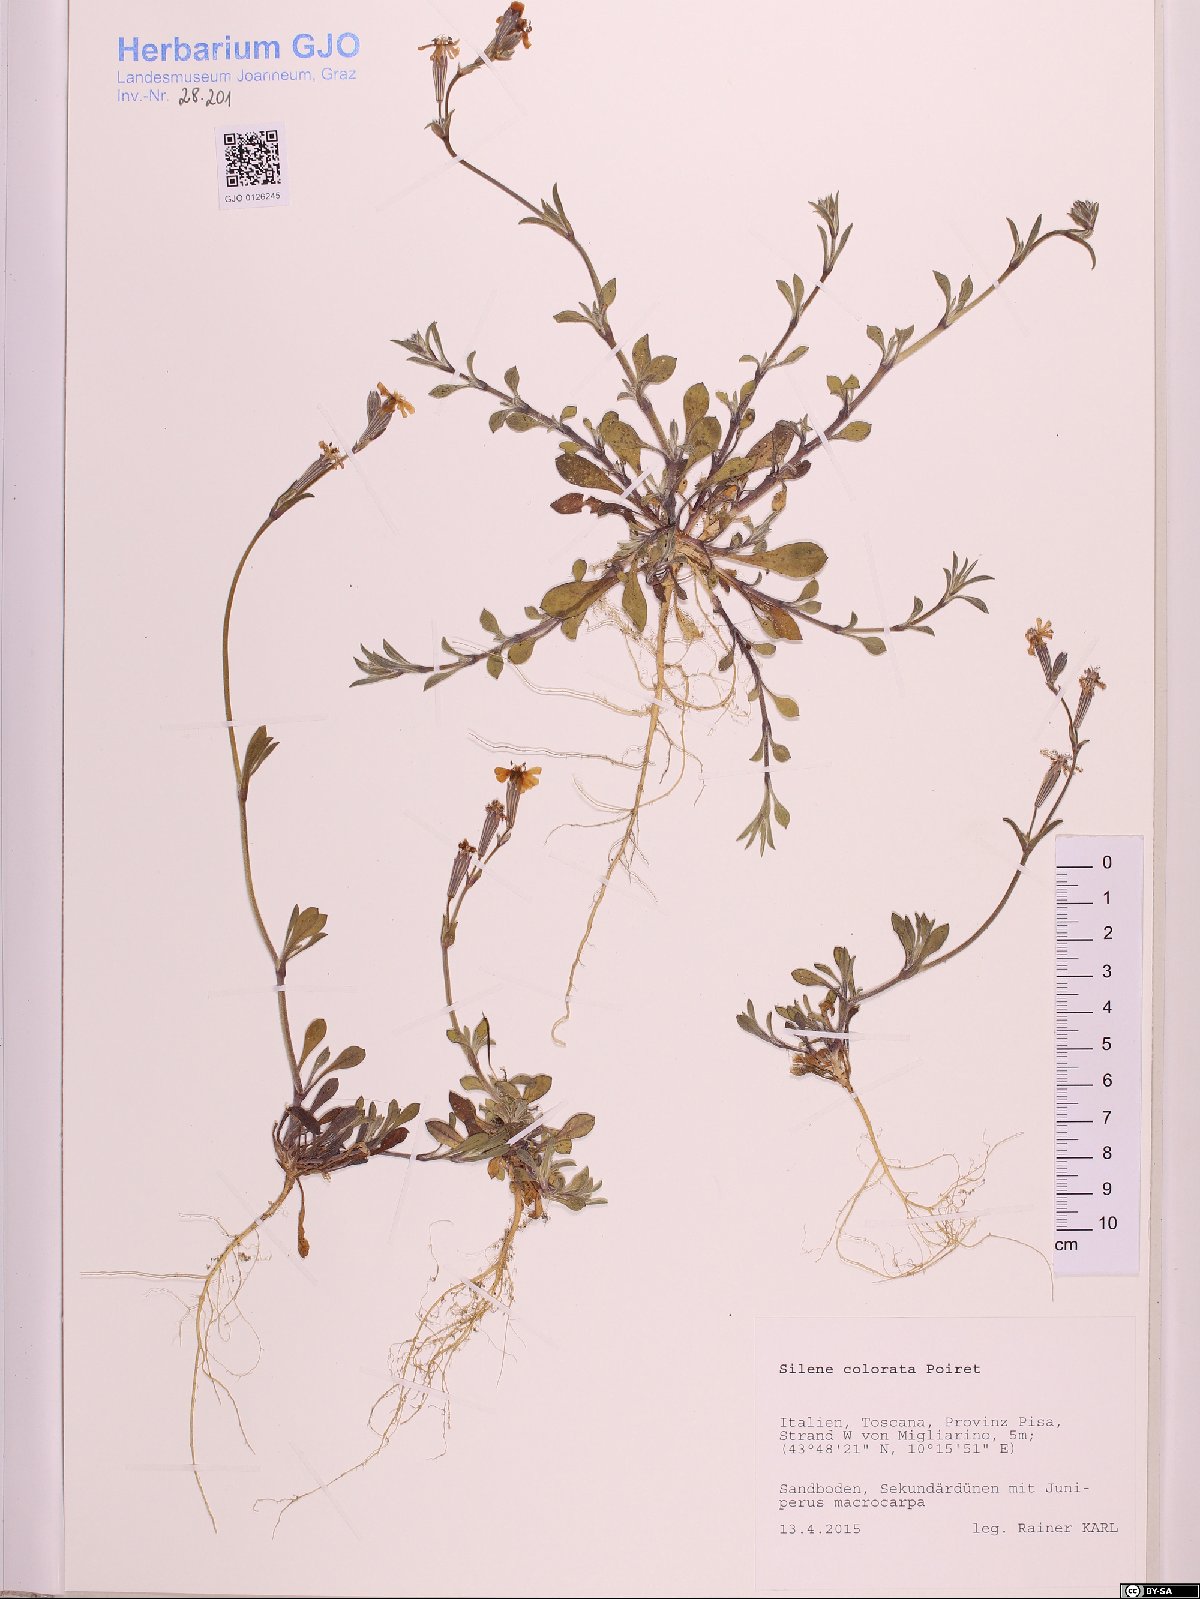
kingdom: Plantae
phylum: Tracheophyta
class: Magnoliopsida
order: Caryophyllales
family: Caryophyllaceae
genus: Silene
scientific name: Silene colorata
